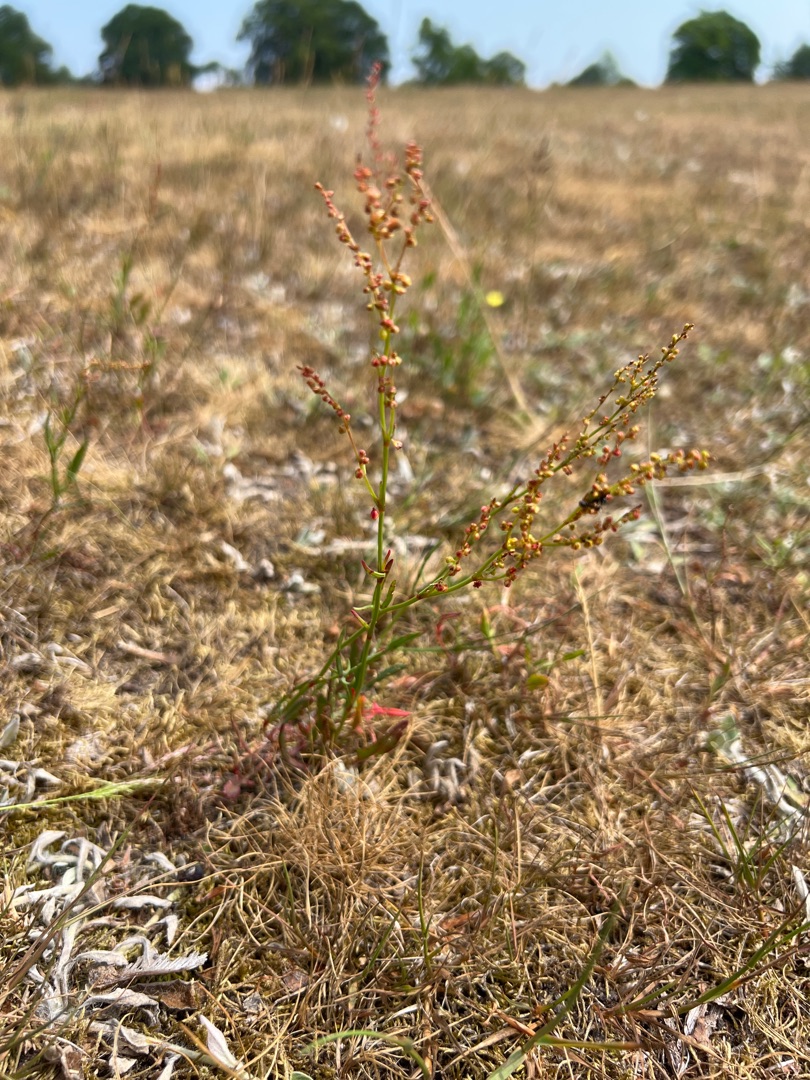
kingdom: Plantae
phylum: Tracheophyta
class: Magnoliopsida
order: Caryophyllales
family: Polygonaceae
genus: Rumex
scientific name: Rumex acetosella
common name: Rødknæ
